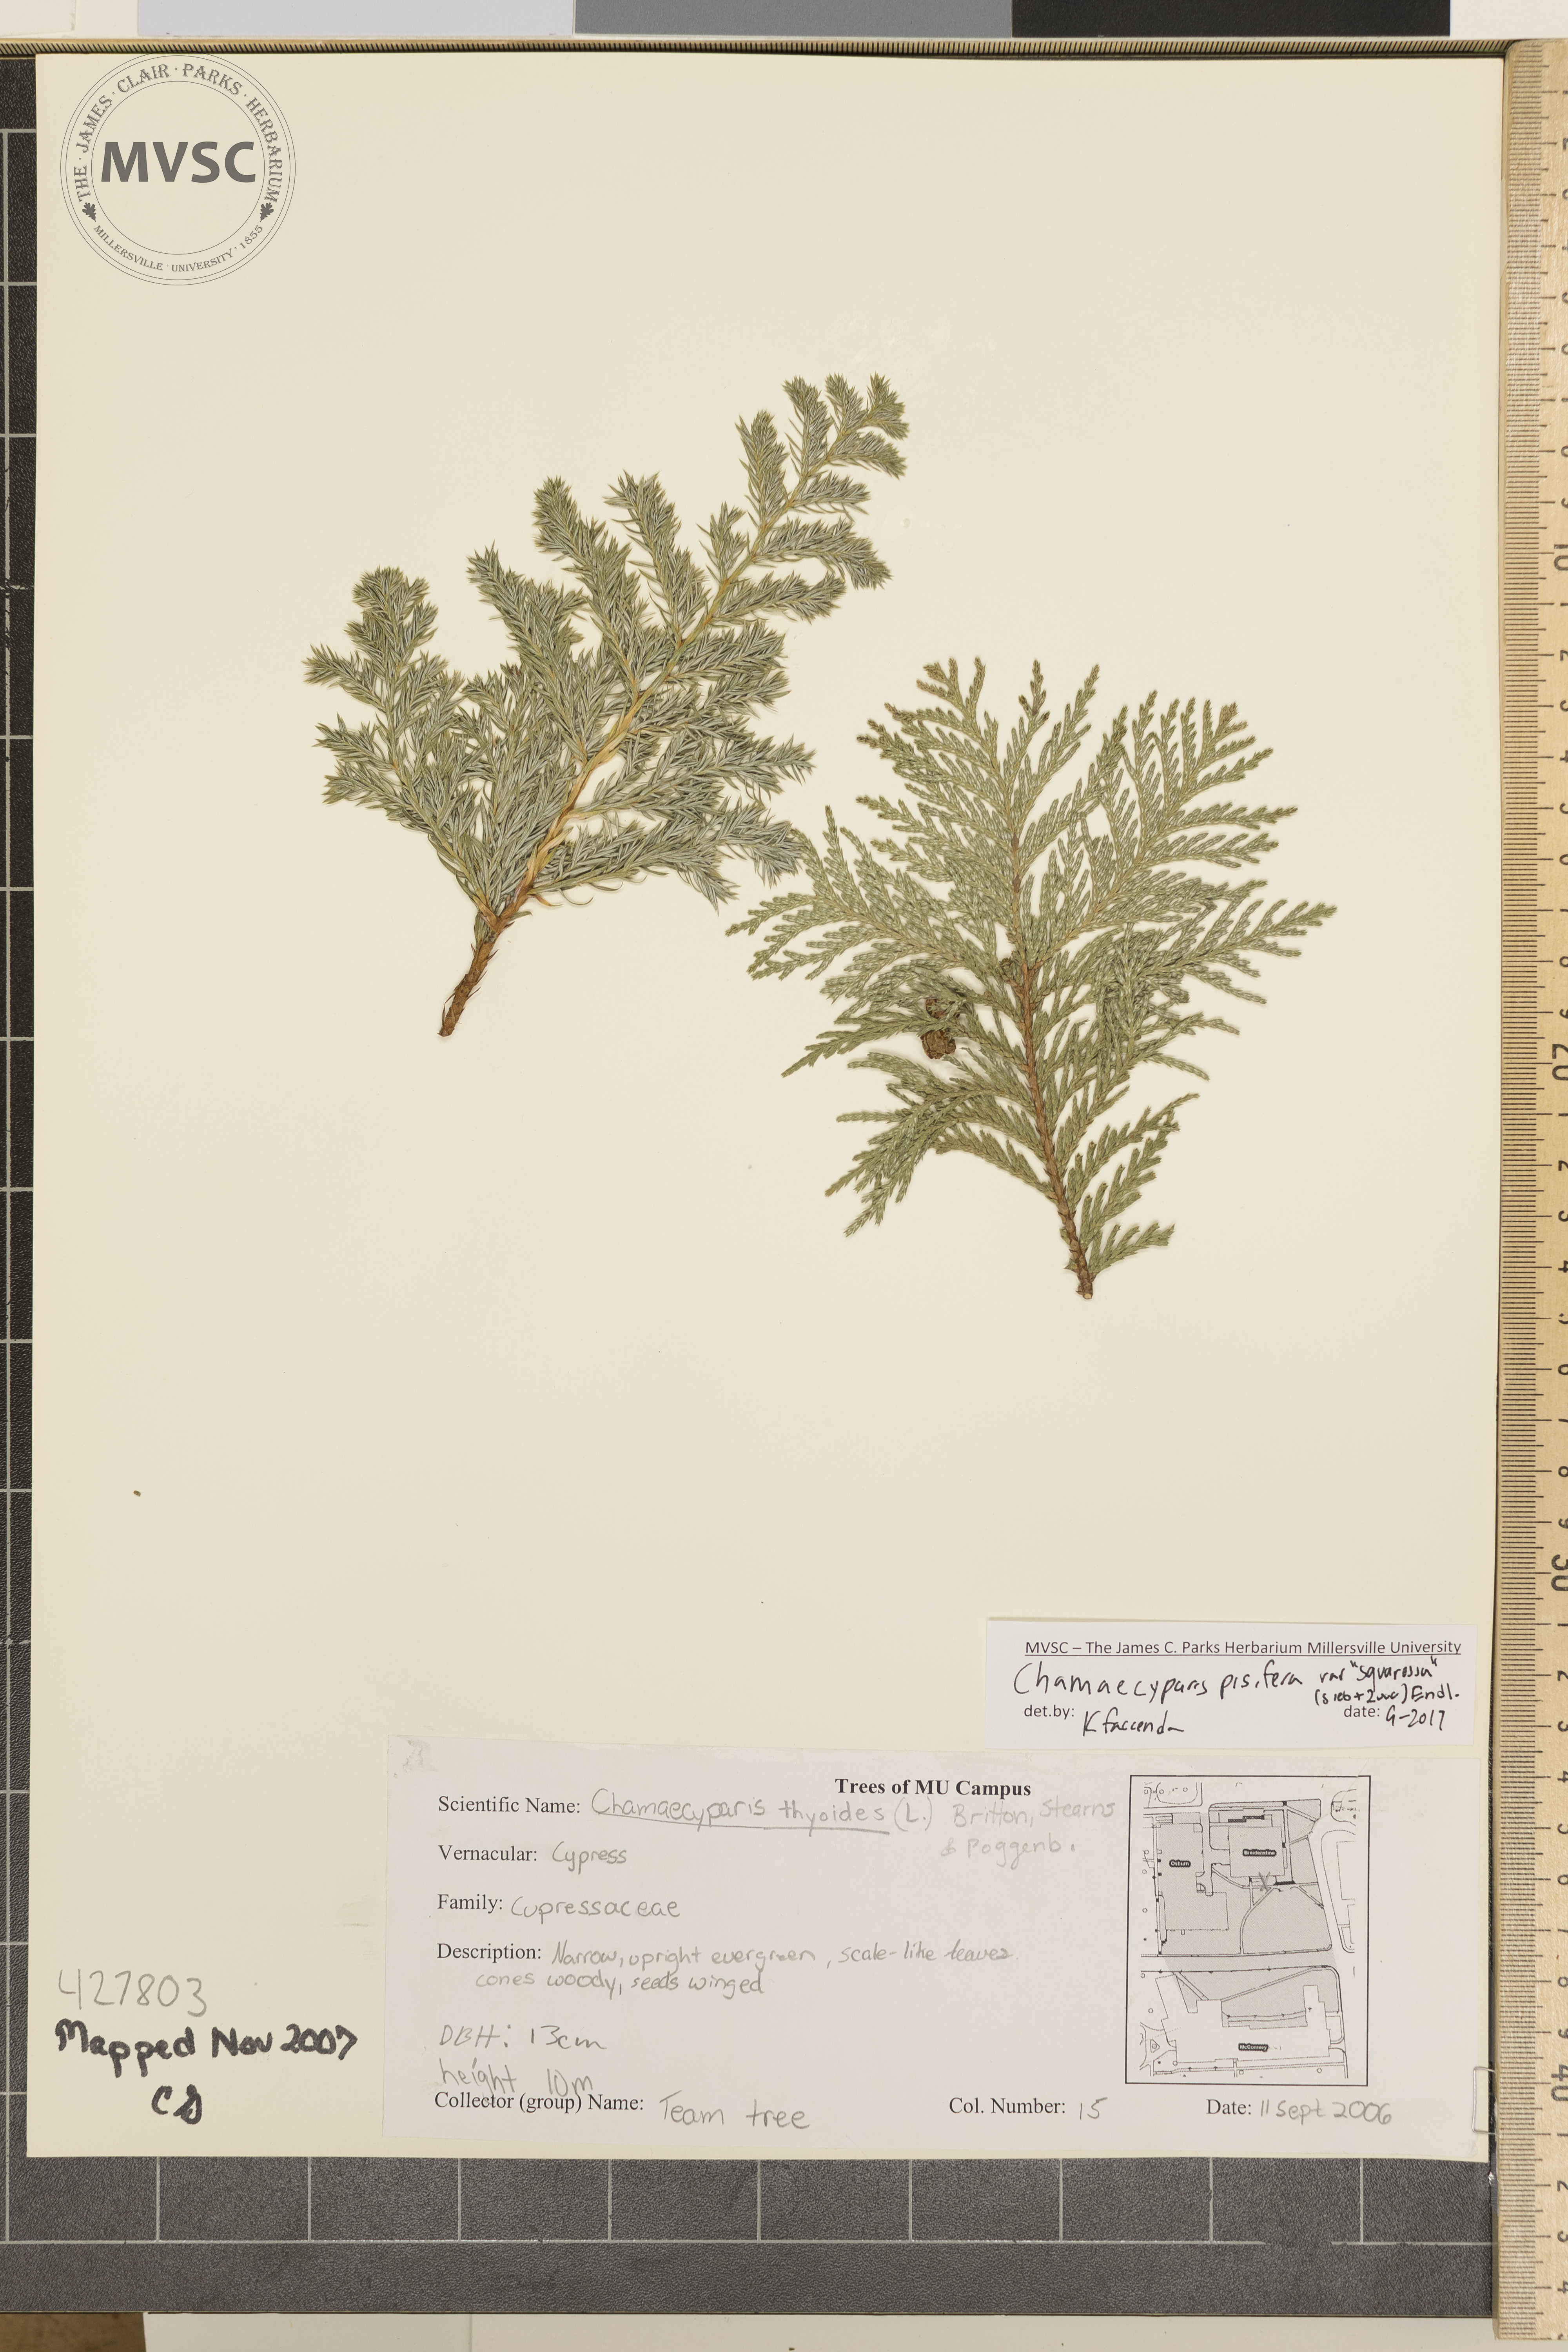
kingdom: Plantae
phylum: Tracheophyta
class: Pinopsida
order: Pinales
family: Cupressaceae
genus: Chamaecyparis
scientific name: Chamaecyparis pisifera
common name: Sawara cypress
